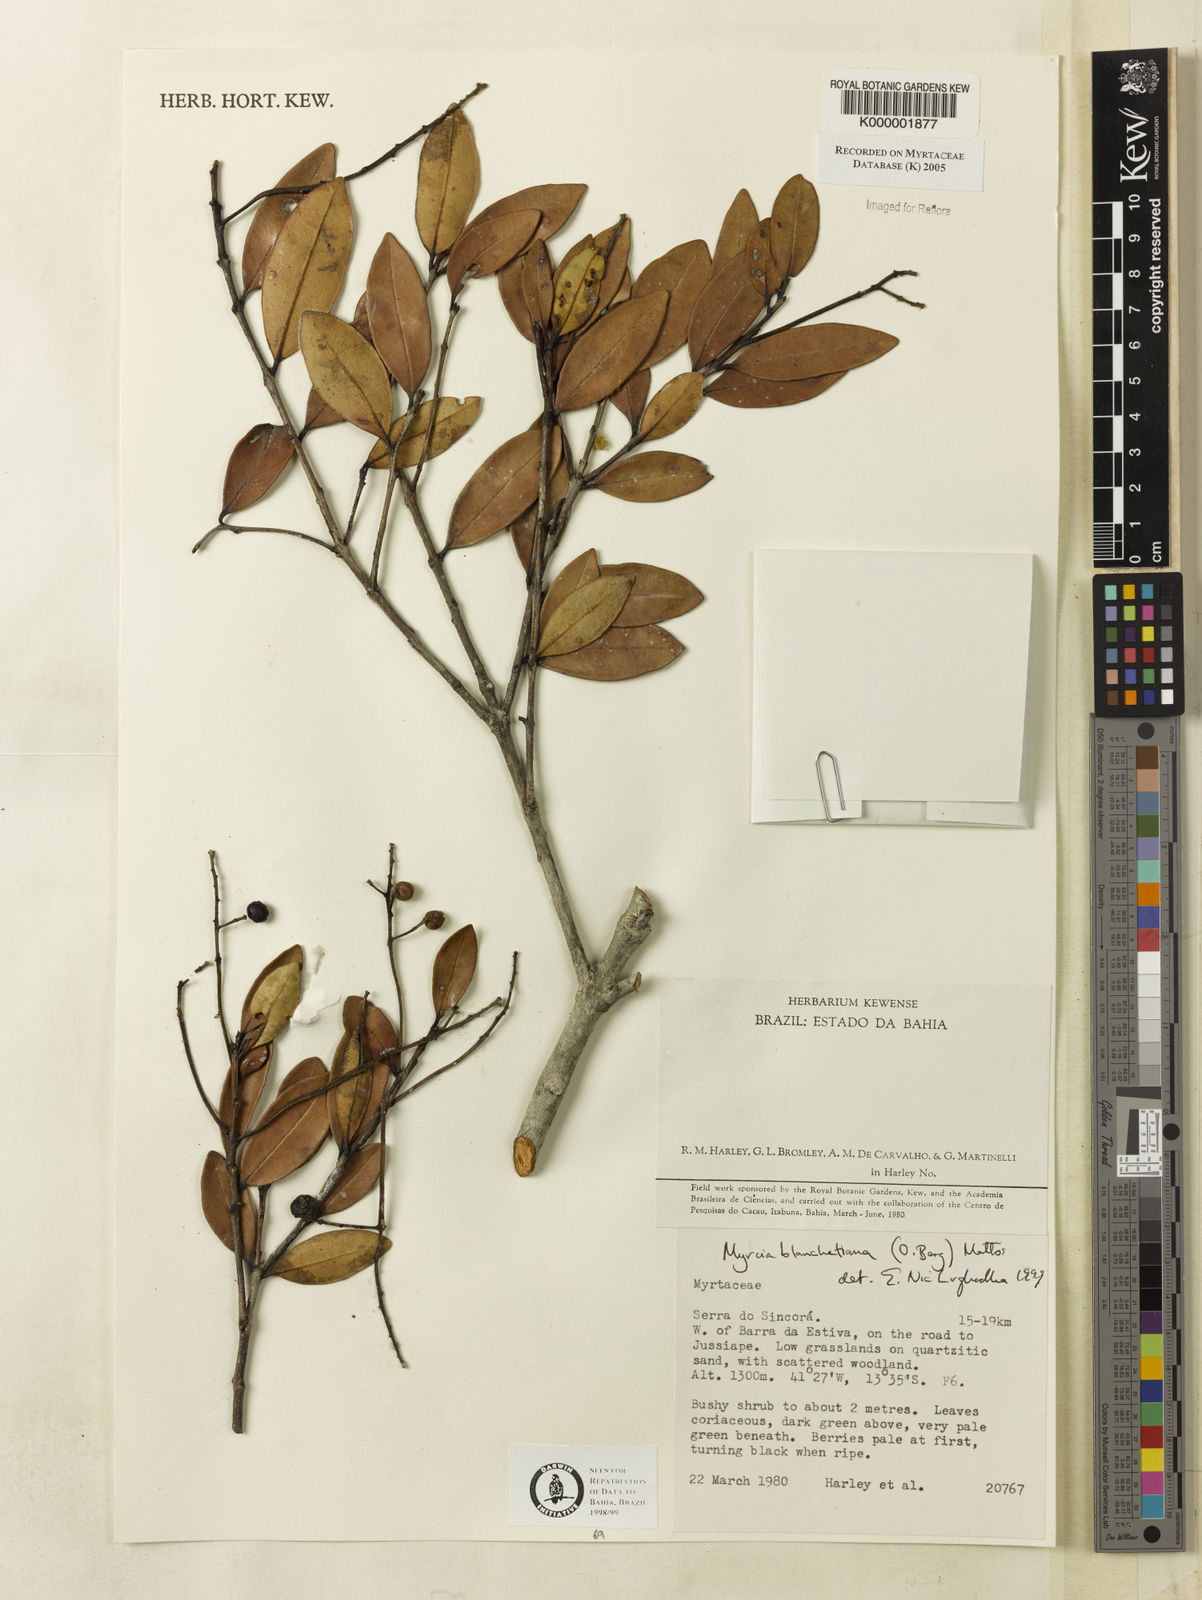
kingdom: Plantae
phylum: Tracheophyta
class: Magnoliopsida
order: Myrtales
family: Myrtaceae
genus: Myrcia
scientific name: Myrcia blanchetiana
